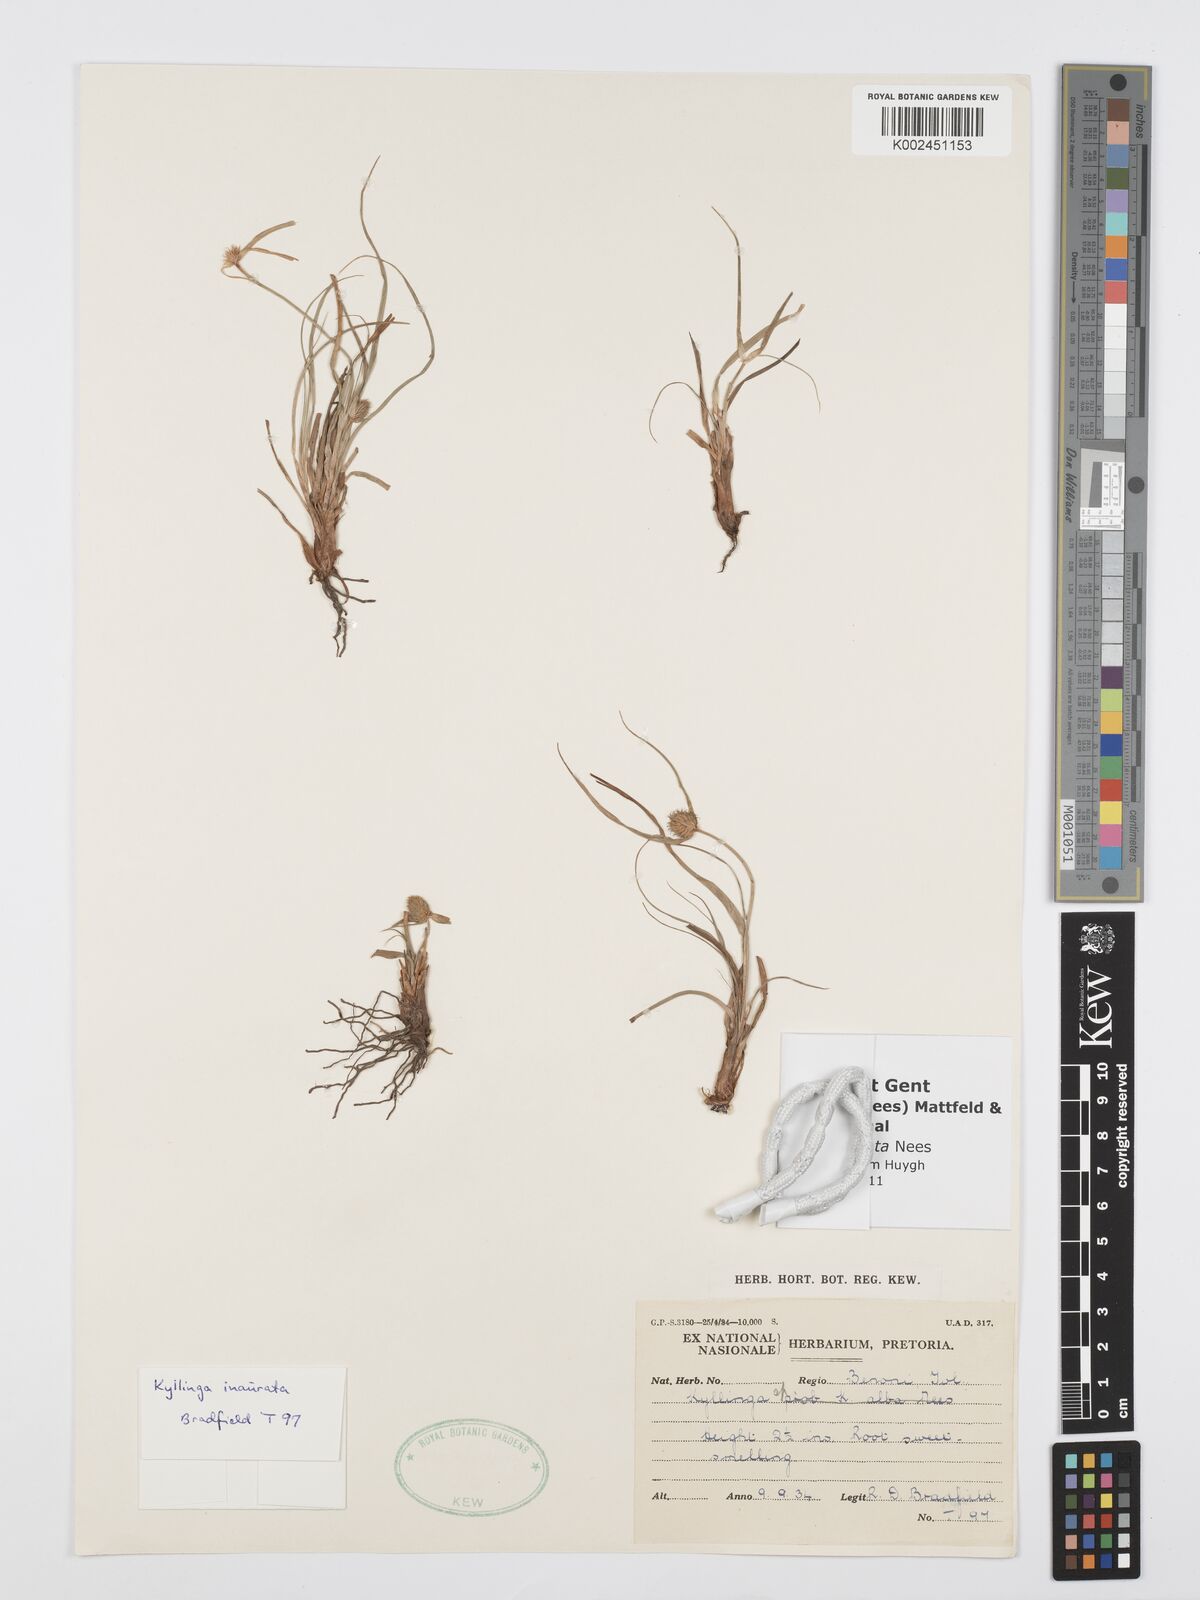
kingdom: Plantae
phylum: Tracheophyta
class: Liliopsida
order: Poales
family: Cyperaceae
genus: Cyperus
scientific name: Cyperus inauratus
